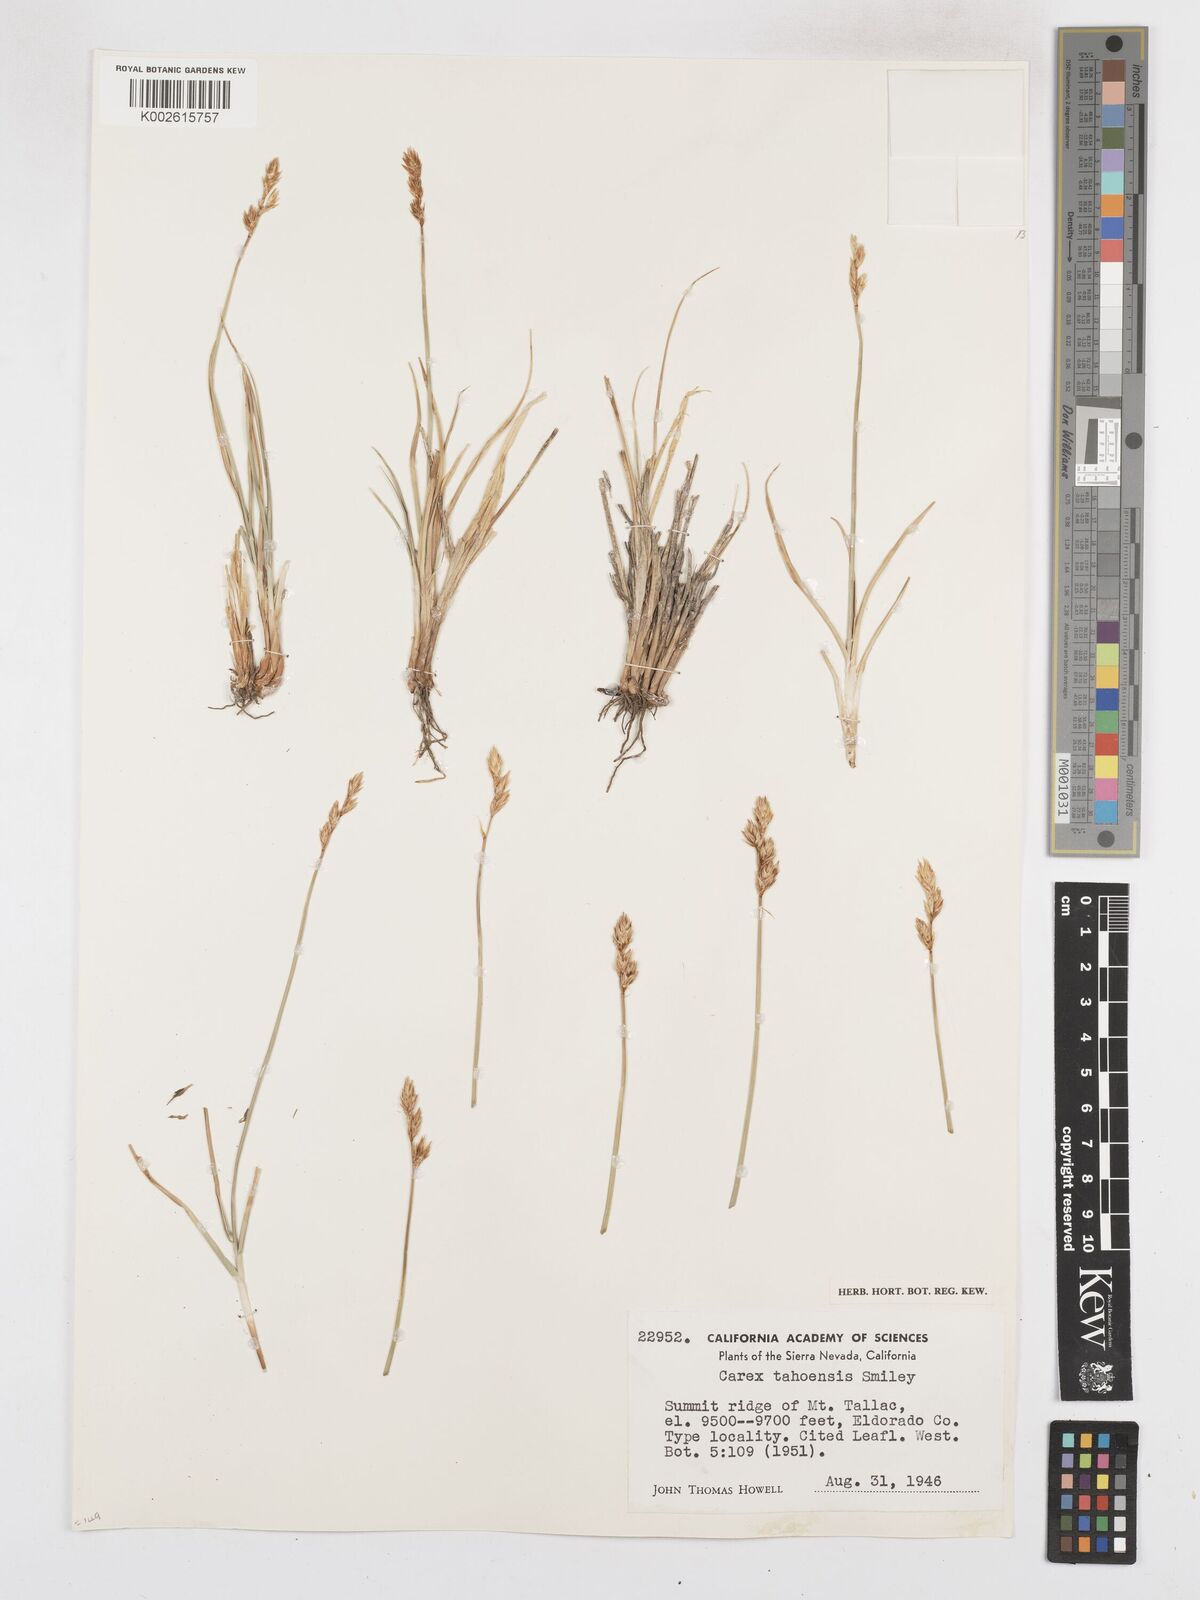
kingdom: Plantae
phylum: Tracheophyta
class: Liliopsida
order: Poales
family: Cyperaceae
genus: Carex
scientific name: Carex phaeocephala
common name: Brown-head sedge
